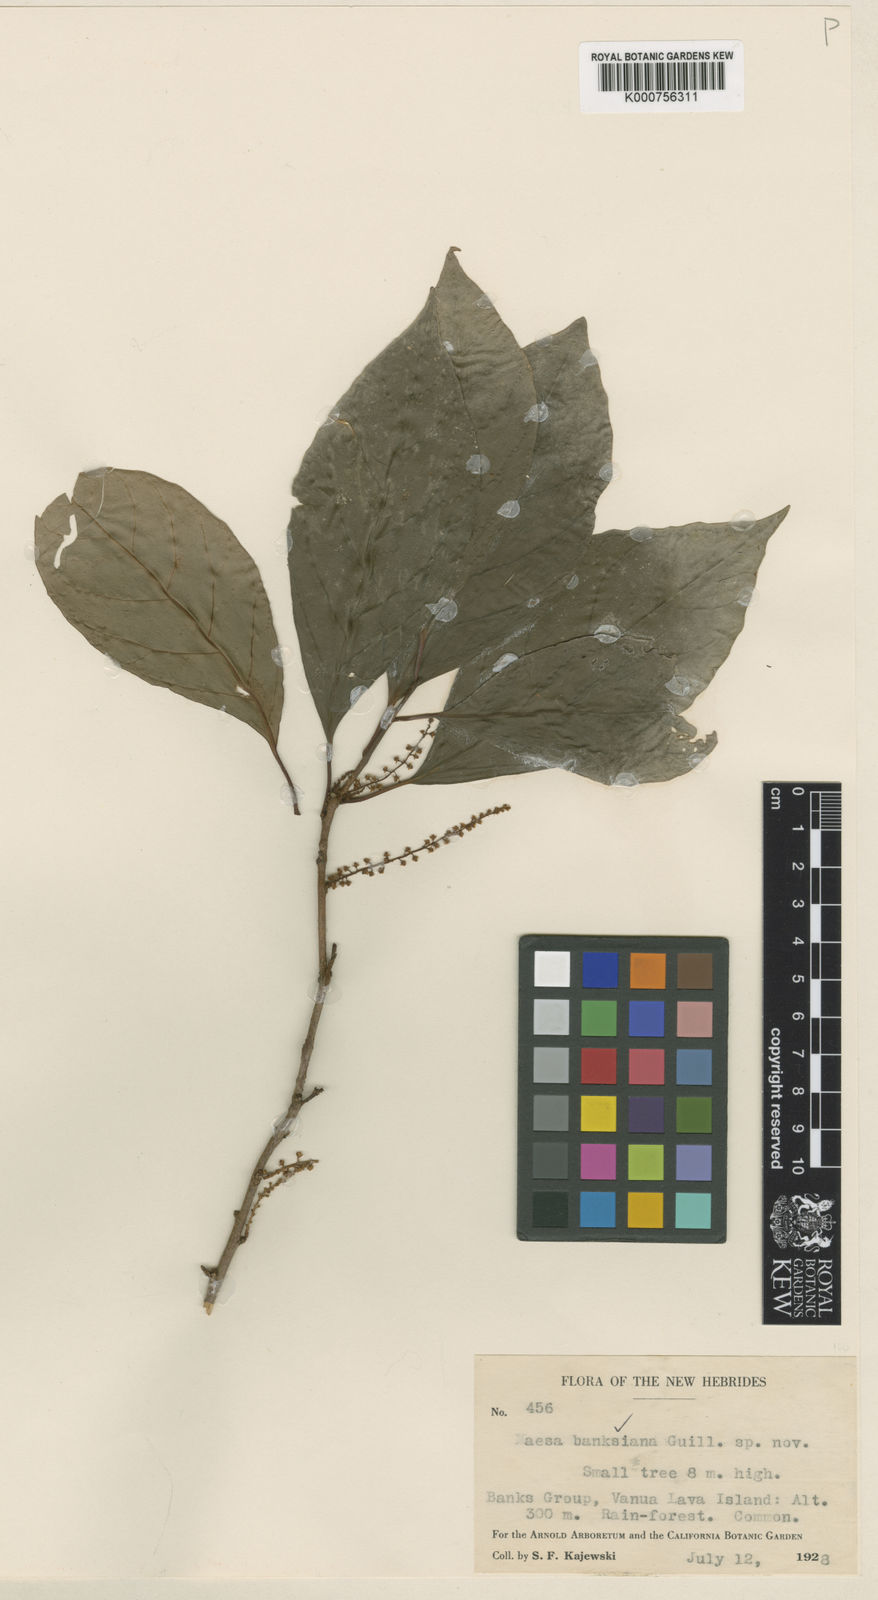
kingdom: Plantae
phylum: Tracheophyta
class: Magnoliopsida
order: Ericales
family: Primulaceae
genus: Maesa
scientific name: Maesa banksiana
